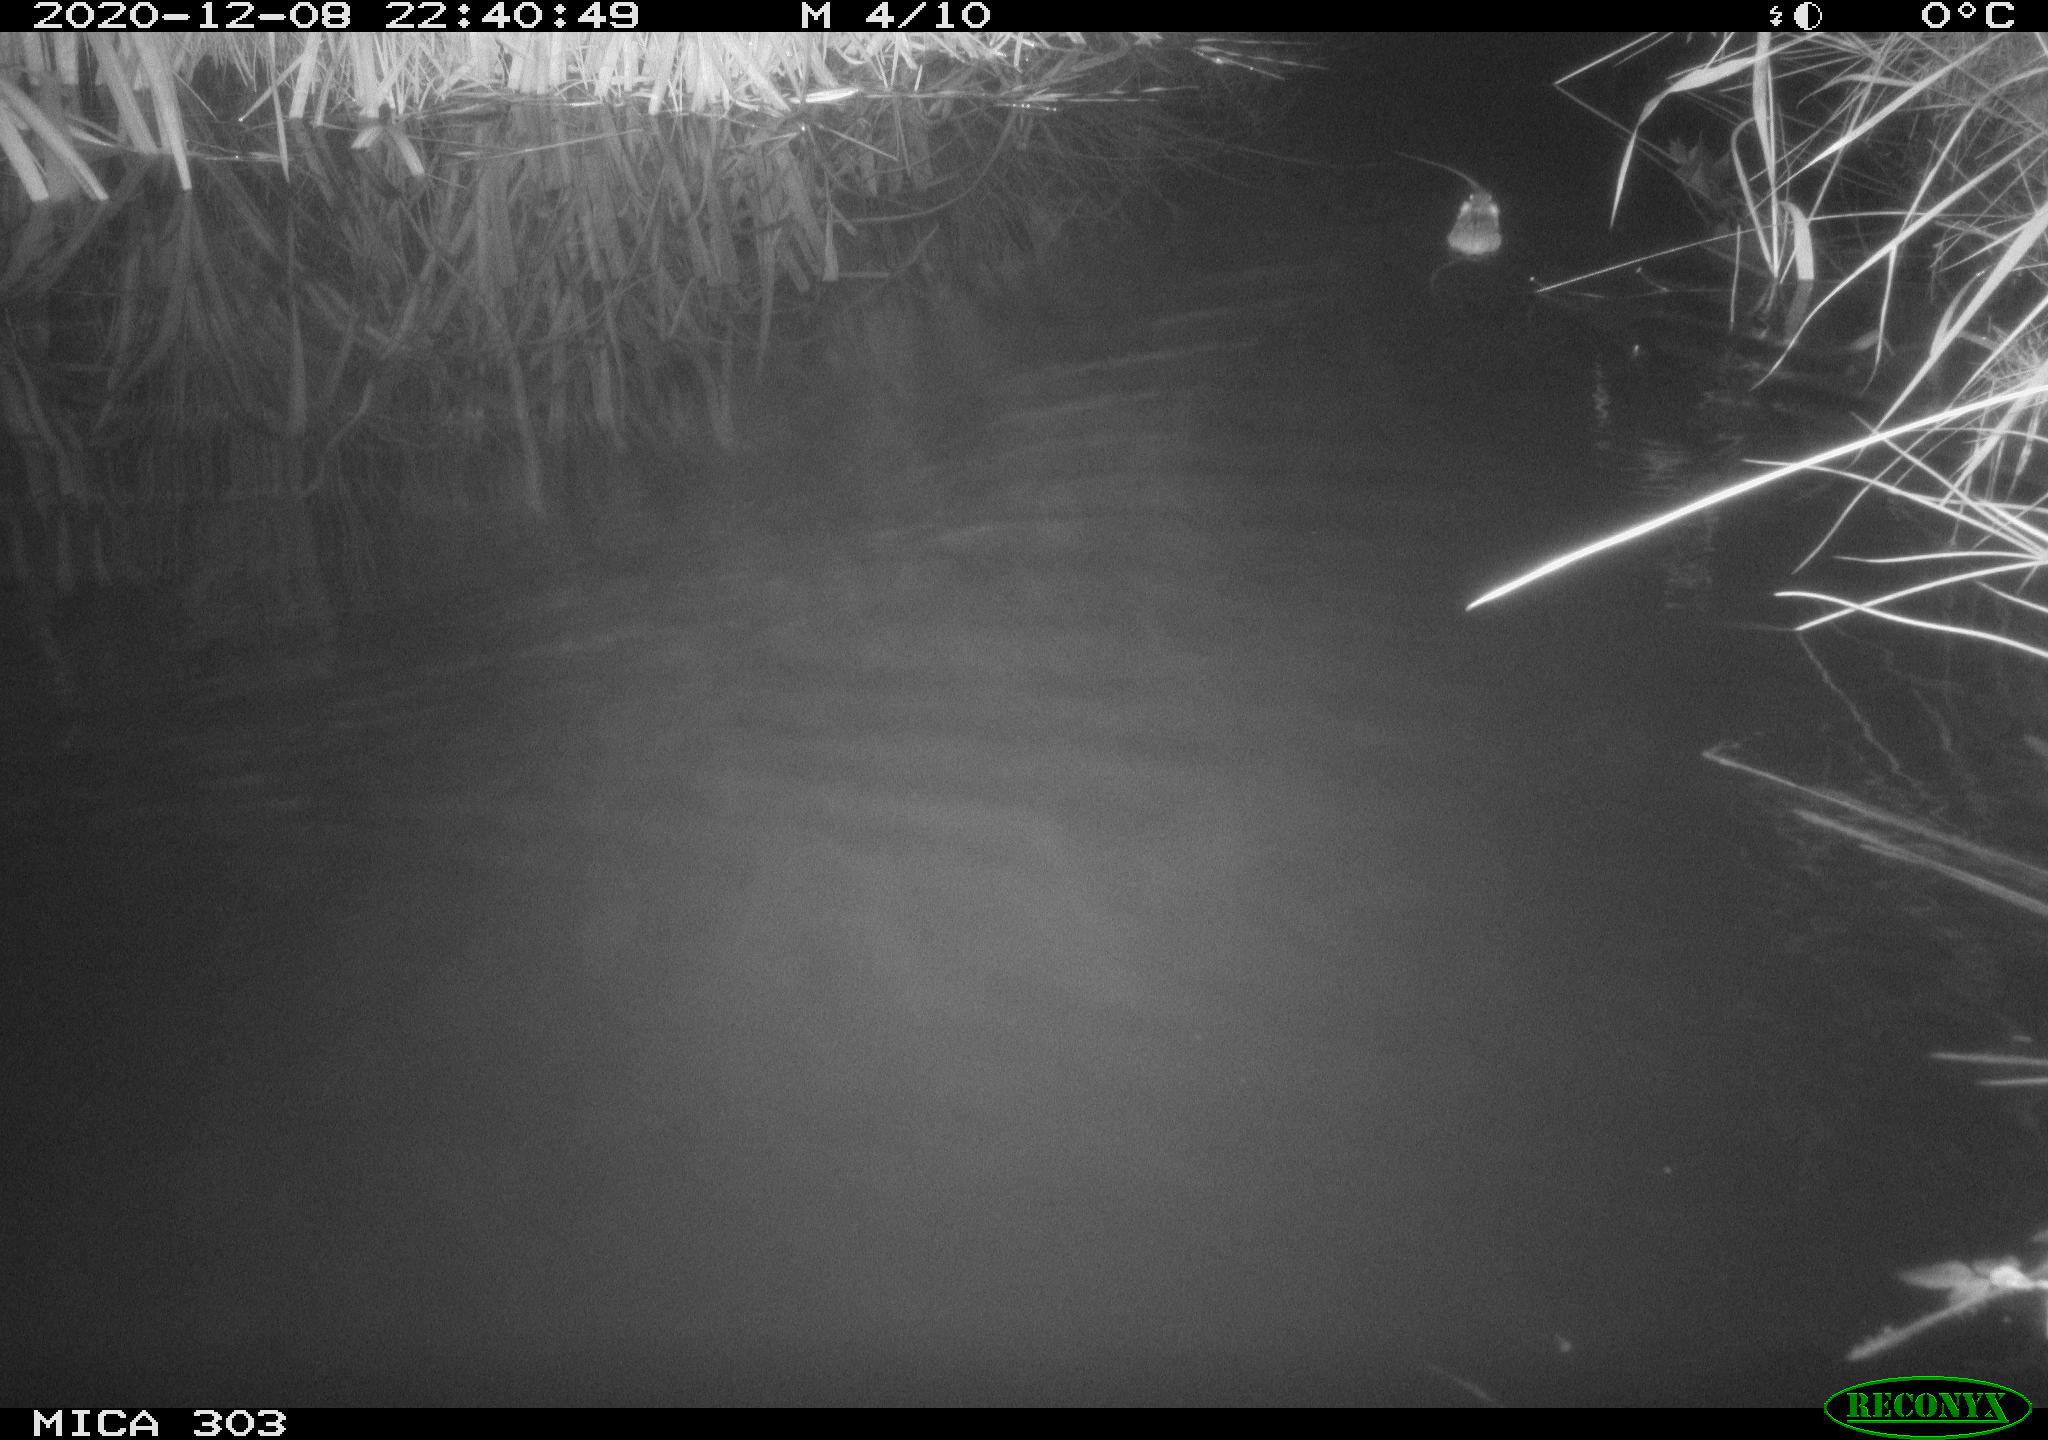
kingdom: Animalia
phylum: Chordata
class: Mammalia
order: Rodentia
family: Muridae
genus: Rattus
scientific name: Rattus norvegicus
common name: Brown rat
